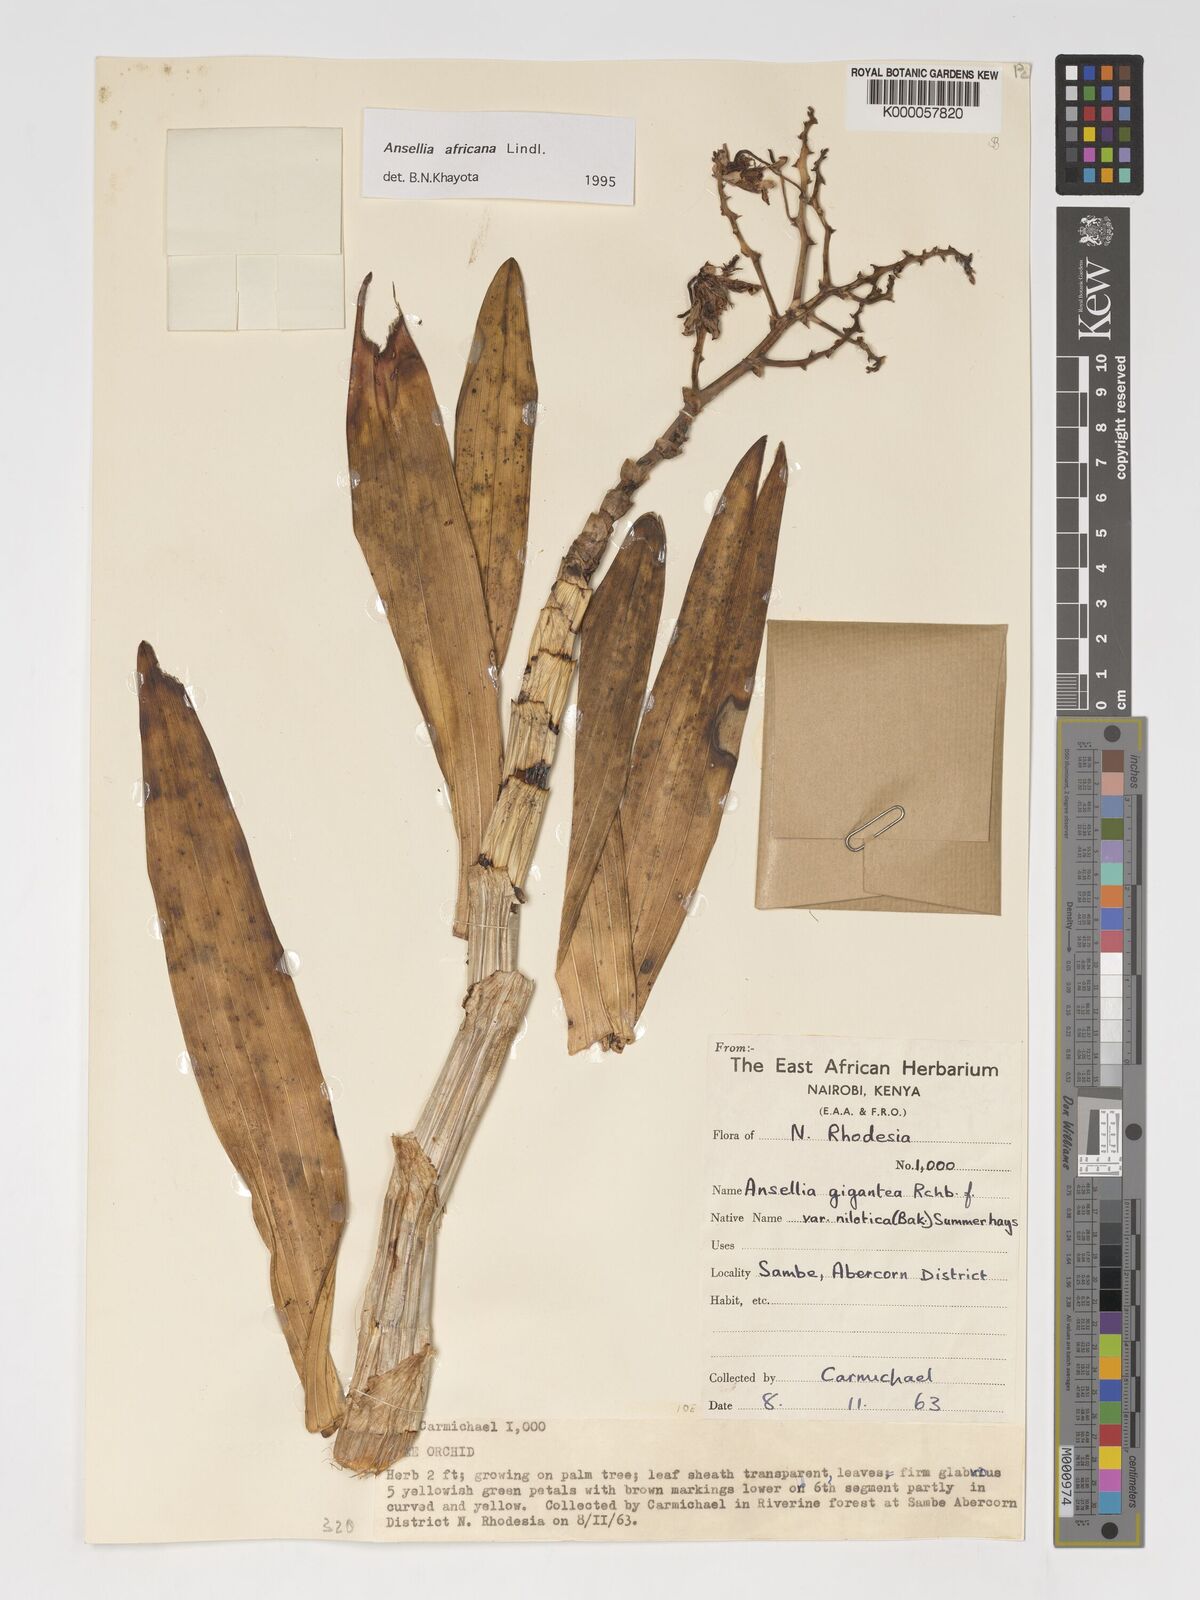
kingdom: Plantae
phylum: Tracheophyta
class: Liliopsida
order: Asparagales
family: Orchidaceae
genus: Ansellia
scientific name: Ansellia africana
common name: African ansellia
